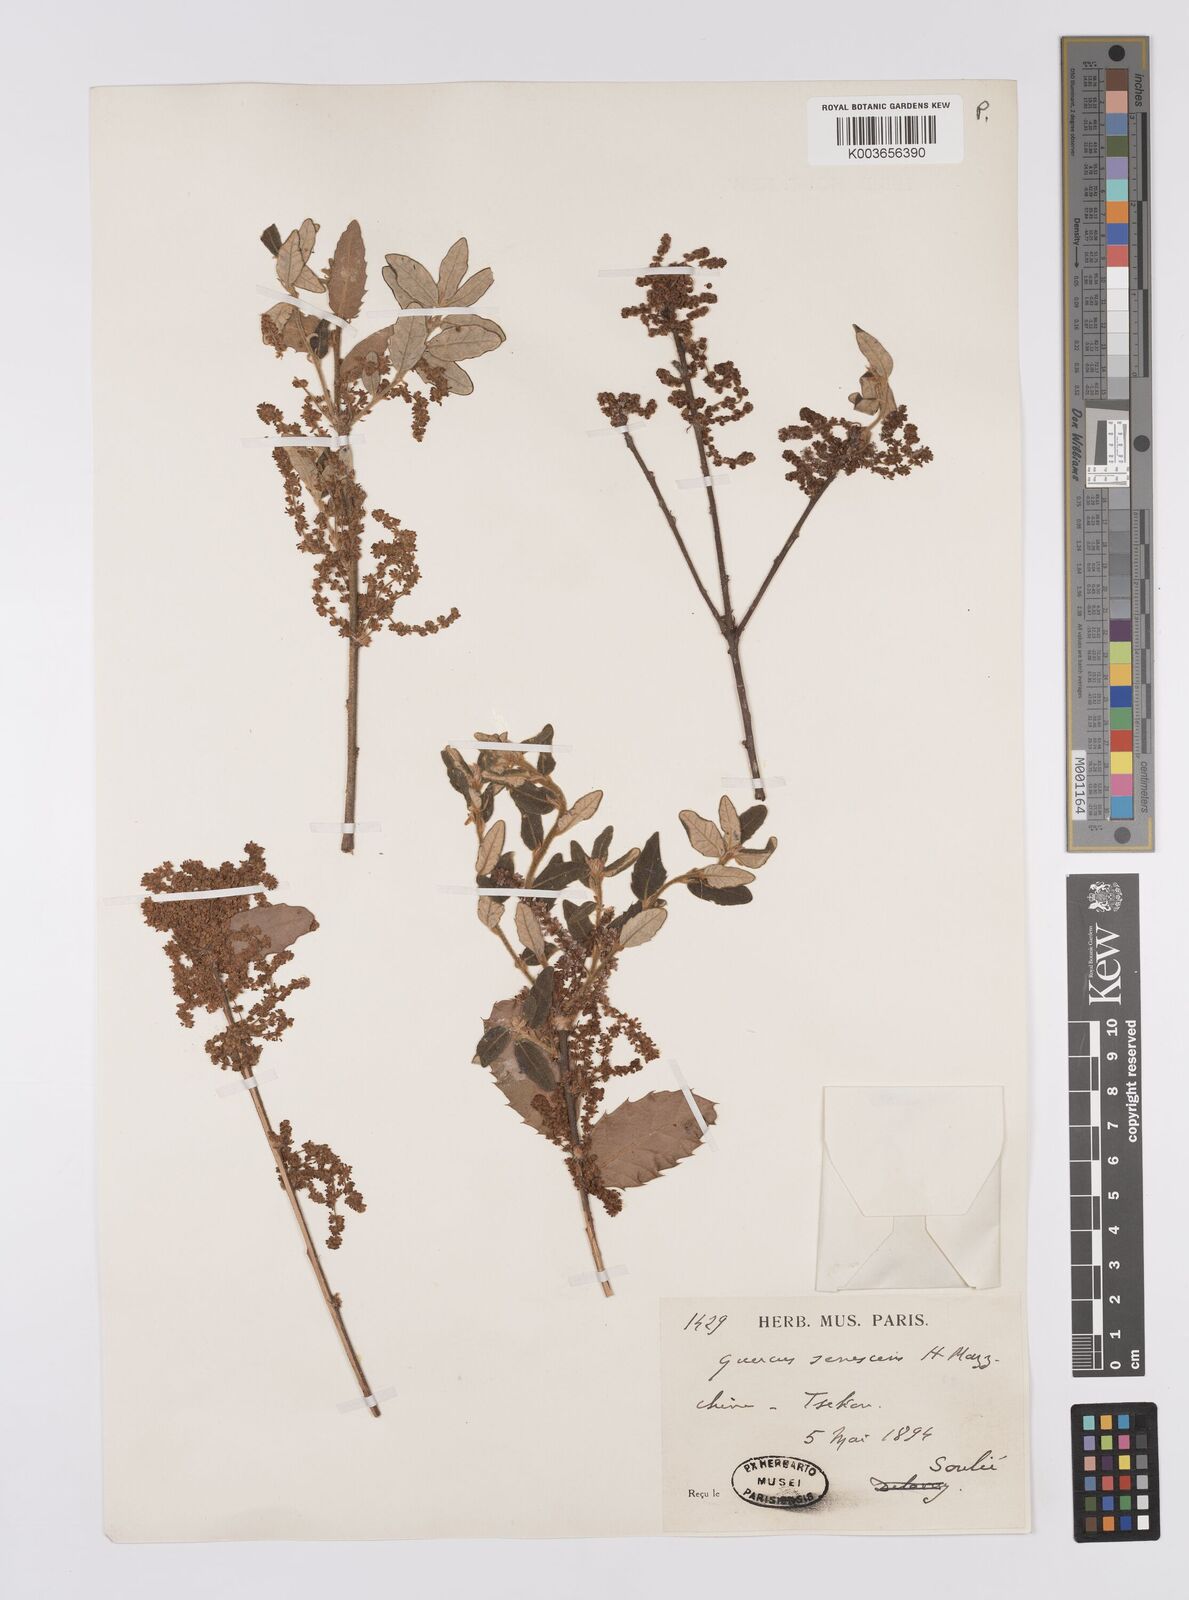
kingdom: Plantae
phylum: Tracheophyta
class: Magnoliopsida
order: Fagales
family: Fagaceae
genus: Quercus
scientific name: Quercus senescens
